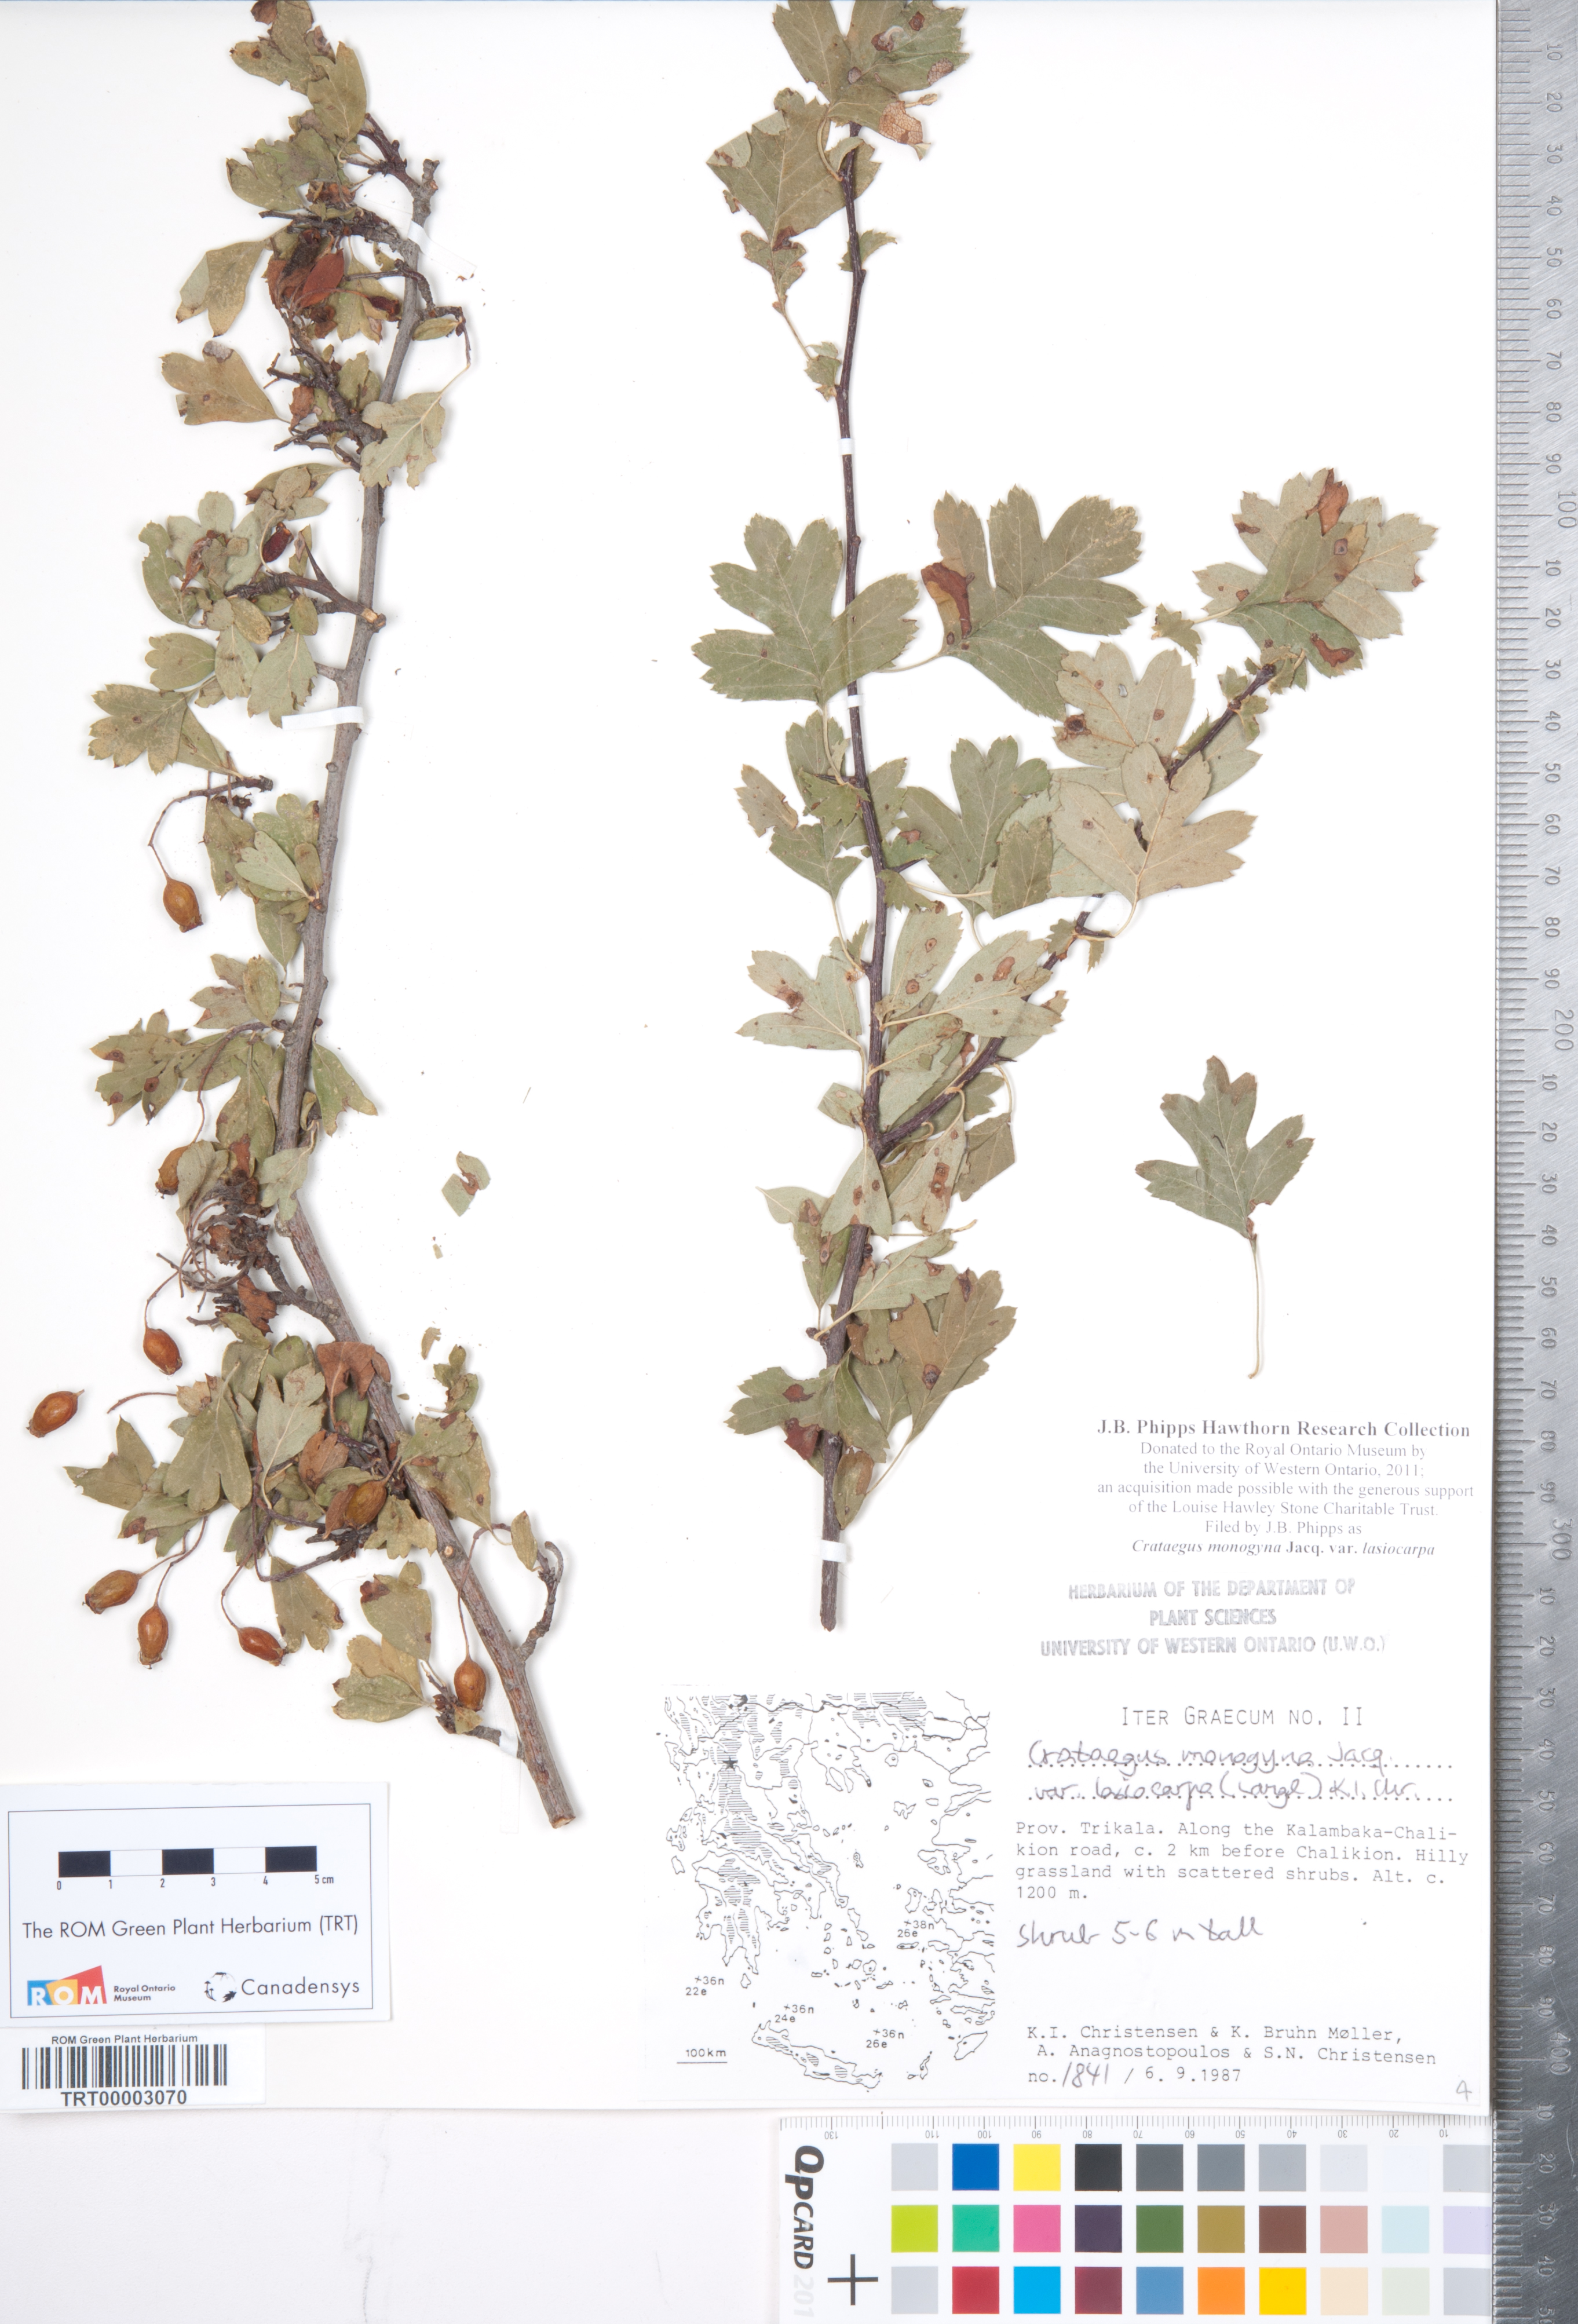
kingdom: Plantae
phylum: Tracheophyta
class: Magnoliopsida
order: Rosales
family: Rosaceae
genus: Crataegus
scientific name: Crataegus laciniata
